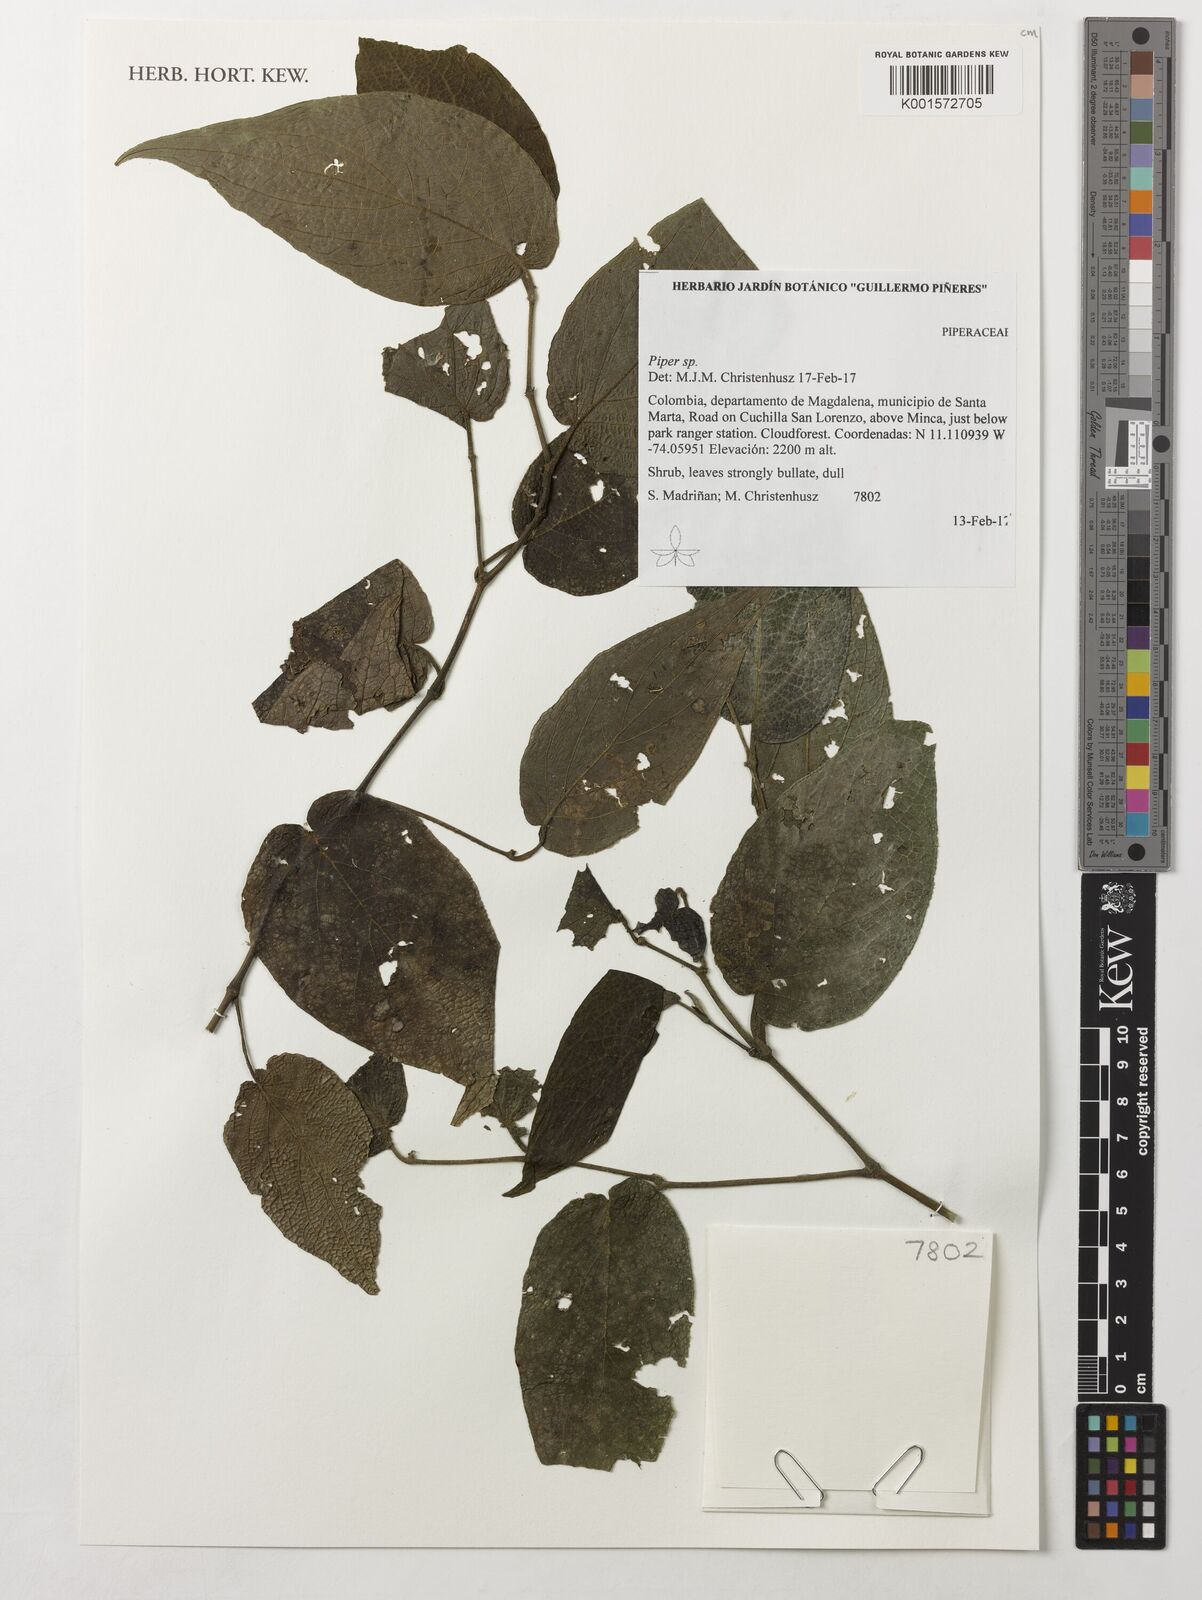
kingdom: Plantae
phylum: Tracheophyta
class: Magnoliopsida
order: Piperales
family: Piperaceae
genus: Piper
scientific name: Piper
